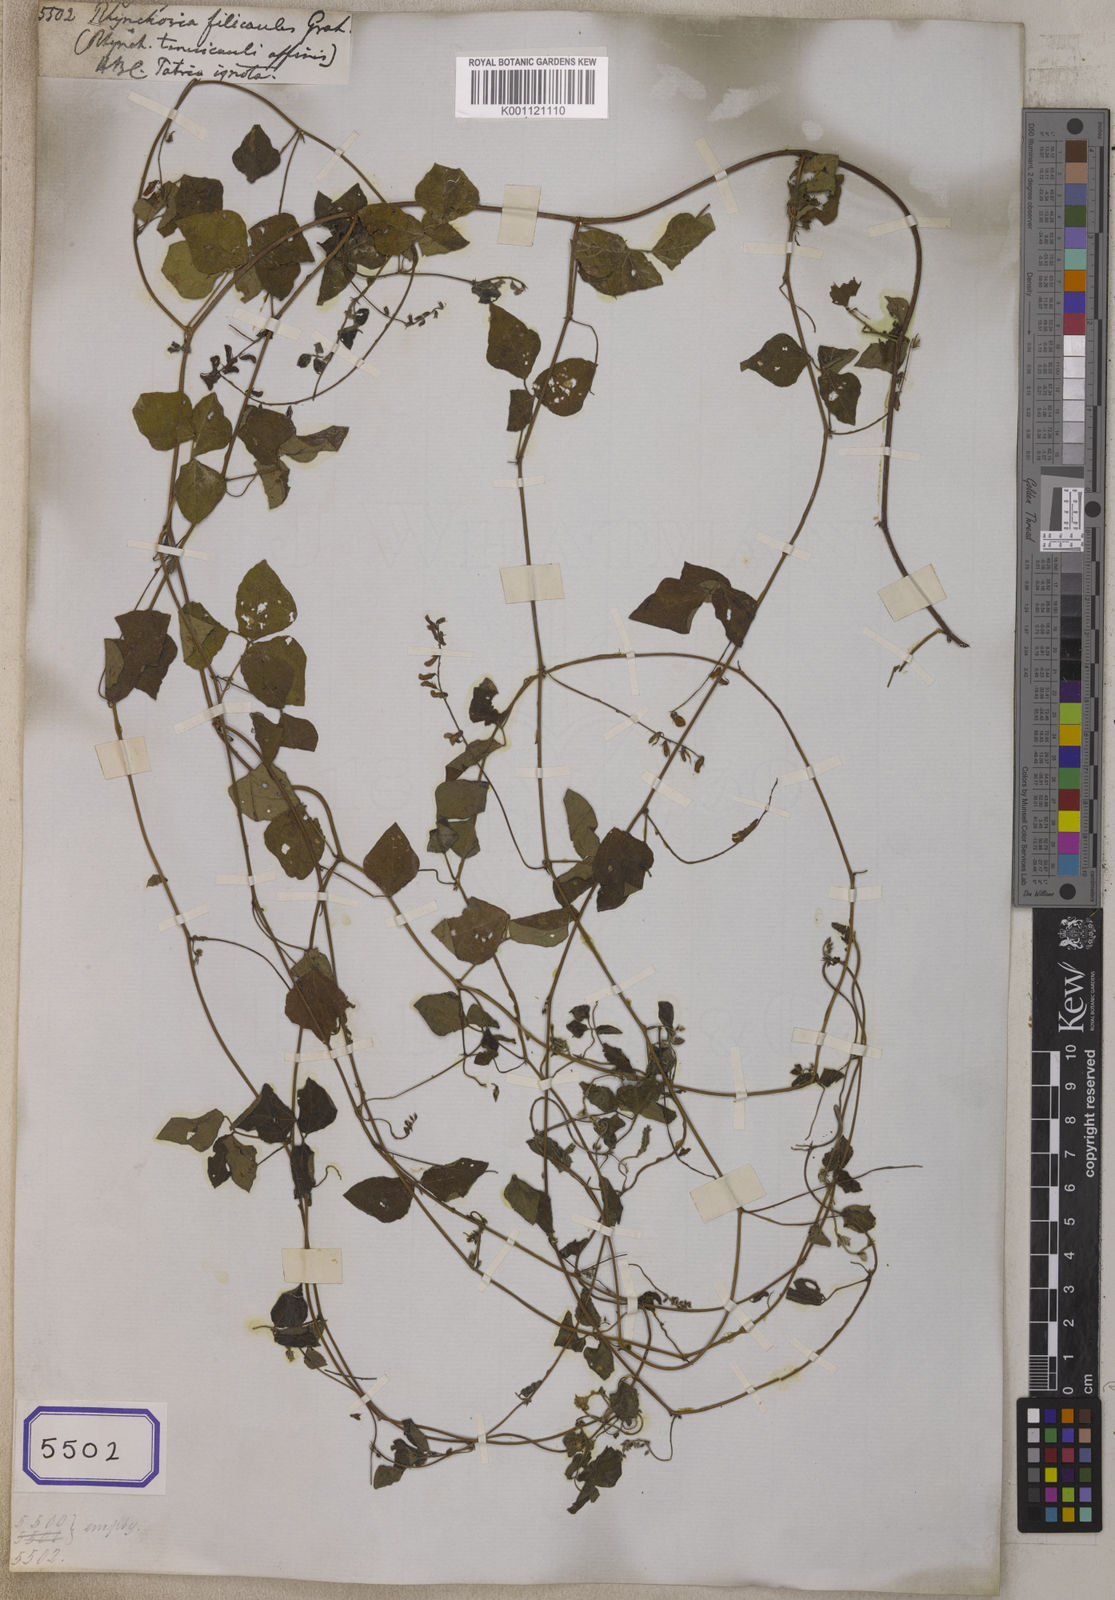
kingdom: Plantae
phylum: Tracheophyta
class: Magnoliopsida
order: Fabales
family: Fabaceae
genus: Rhynchosia
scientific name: Rhynchosia minima
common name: Least snoutbean
